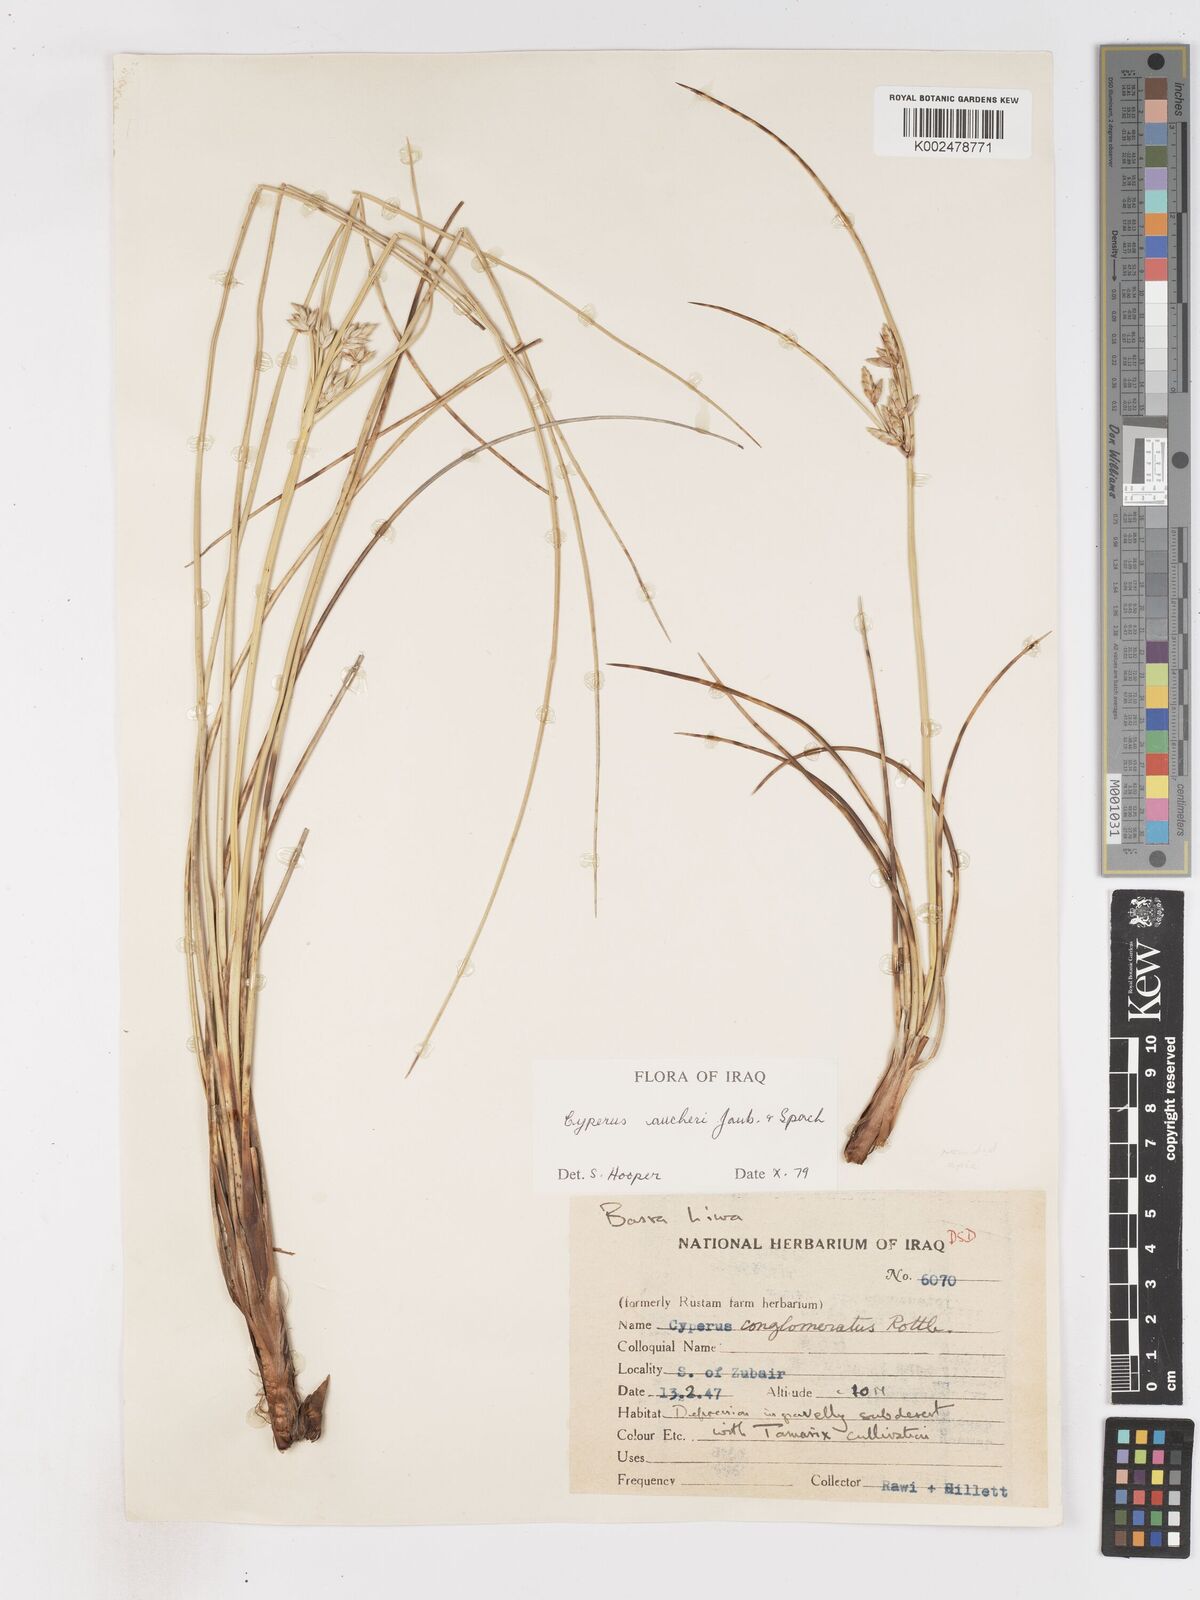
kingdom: Plantae
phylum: Tracheophyta
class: Liliopsida
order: Poales
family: Cyperaceae
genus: Cyperus
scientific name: Cyperus aucheri
